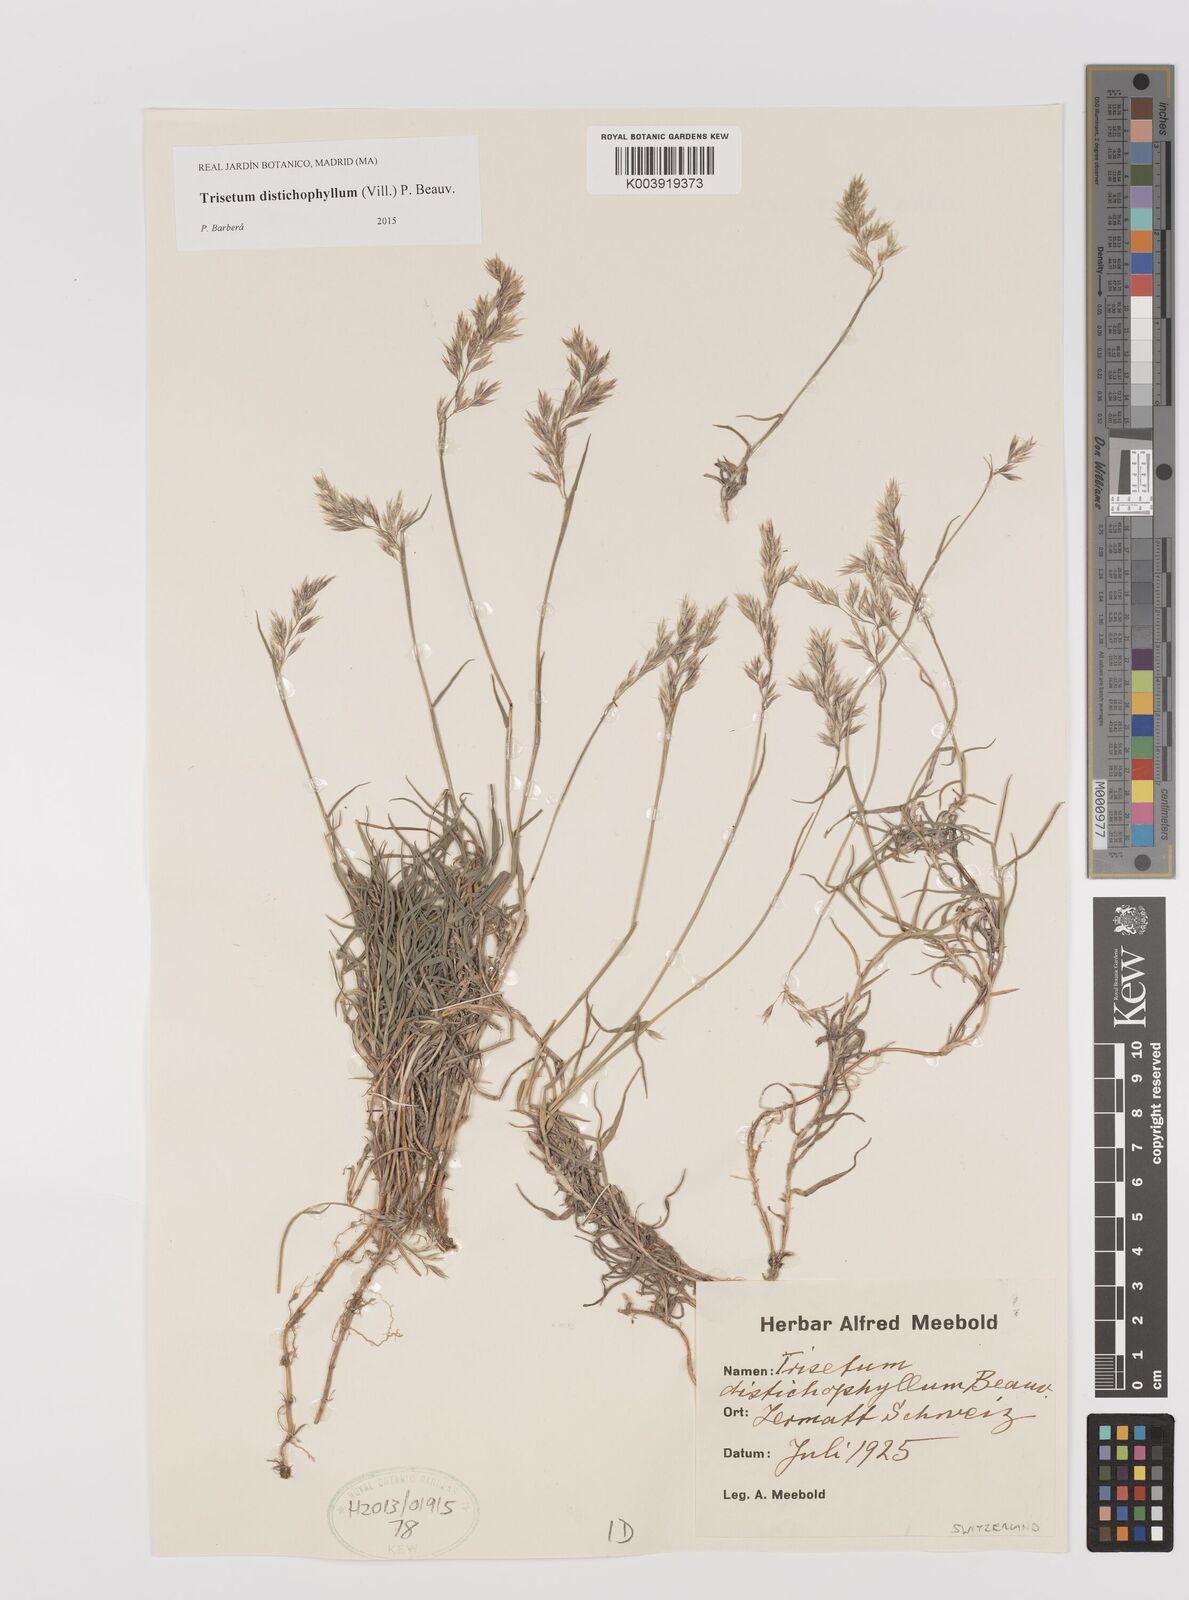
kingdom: Plantae
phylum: Tracheophyta
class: Liliopsida
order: Poales
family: Poaceae
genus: Acrospelion
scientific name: Acrospelion distichophyllum
